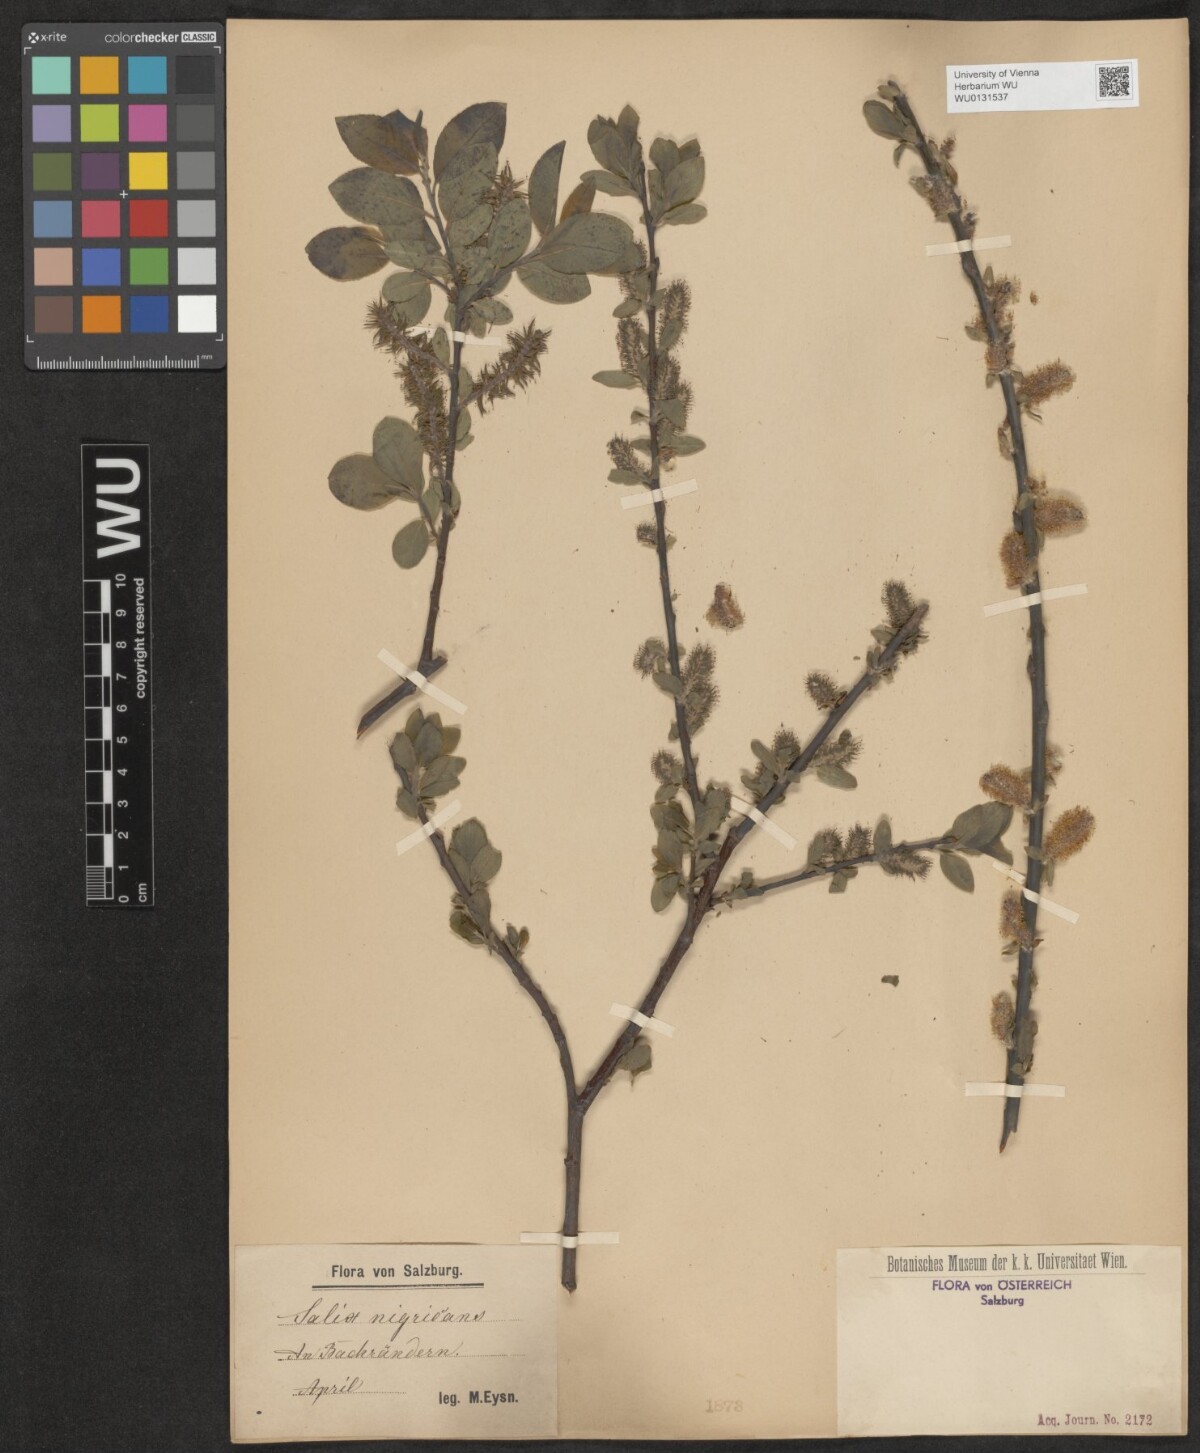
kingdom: Plantae
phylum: Tracheophyta
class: Magnoliopsida
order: Malpighiales
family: Salicaceae
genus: Salix
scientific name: Salix myrsinifolia
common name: Dark-leaved willow
